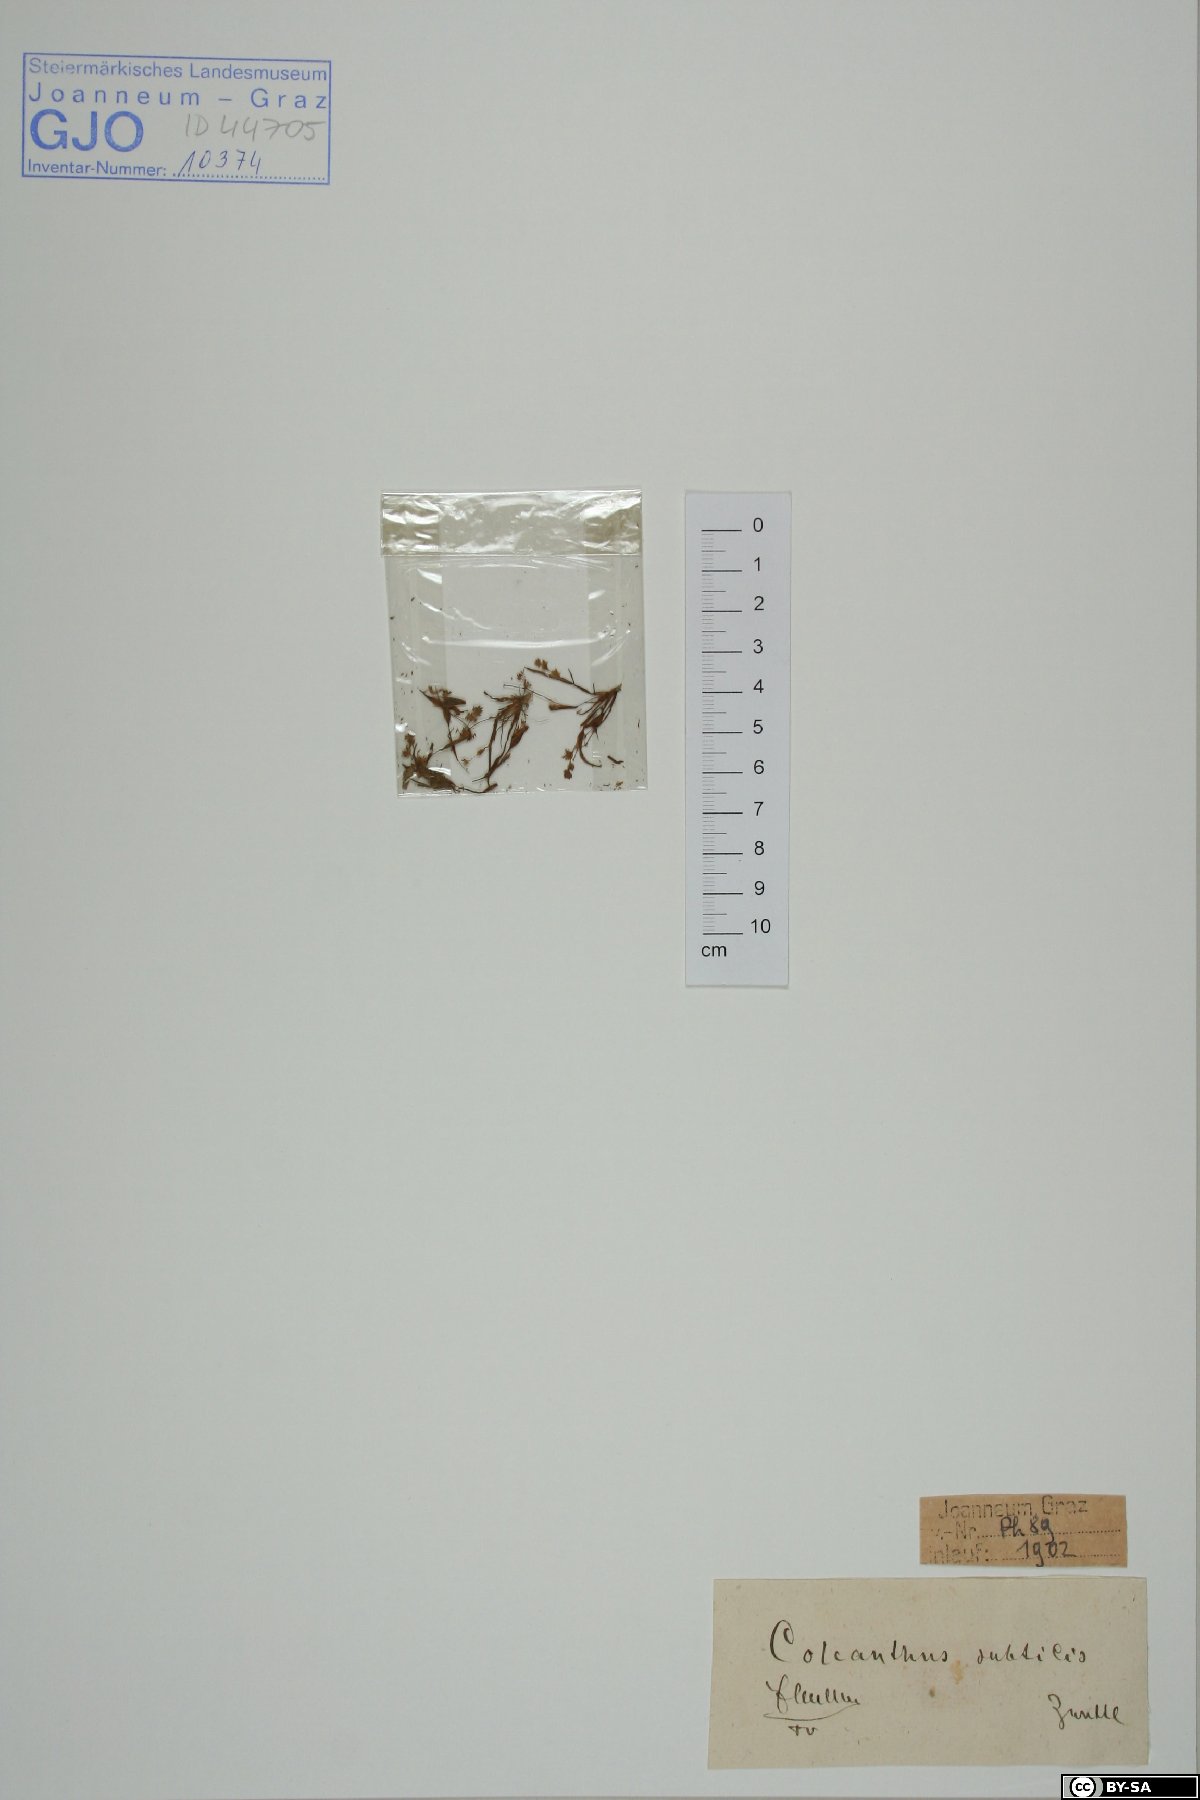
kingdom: Plantae
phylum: Tracheophyta
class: Liliopsida
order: Poales
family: Poaceae
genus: Coleanthus
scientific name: Coleanthus subtilis
